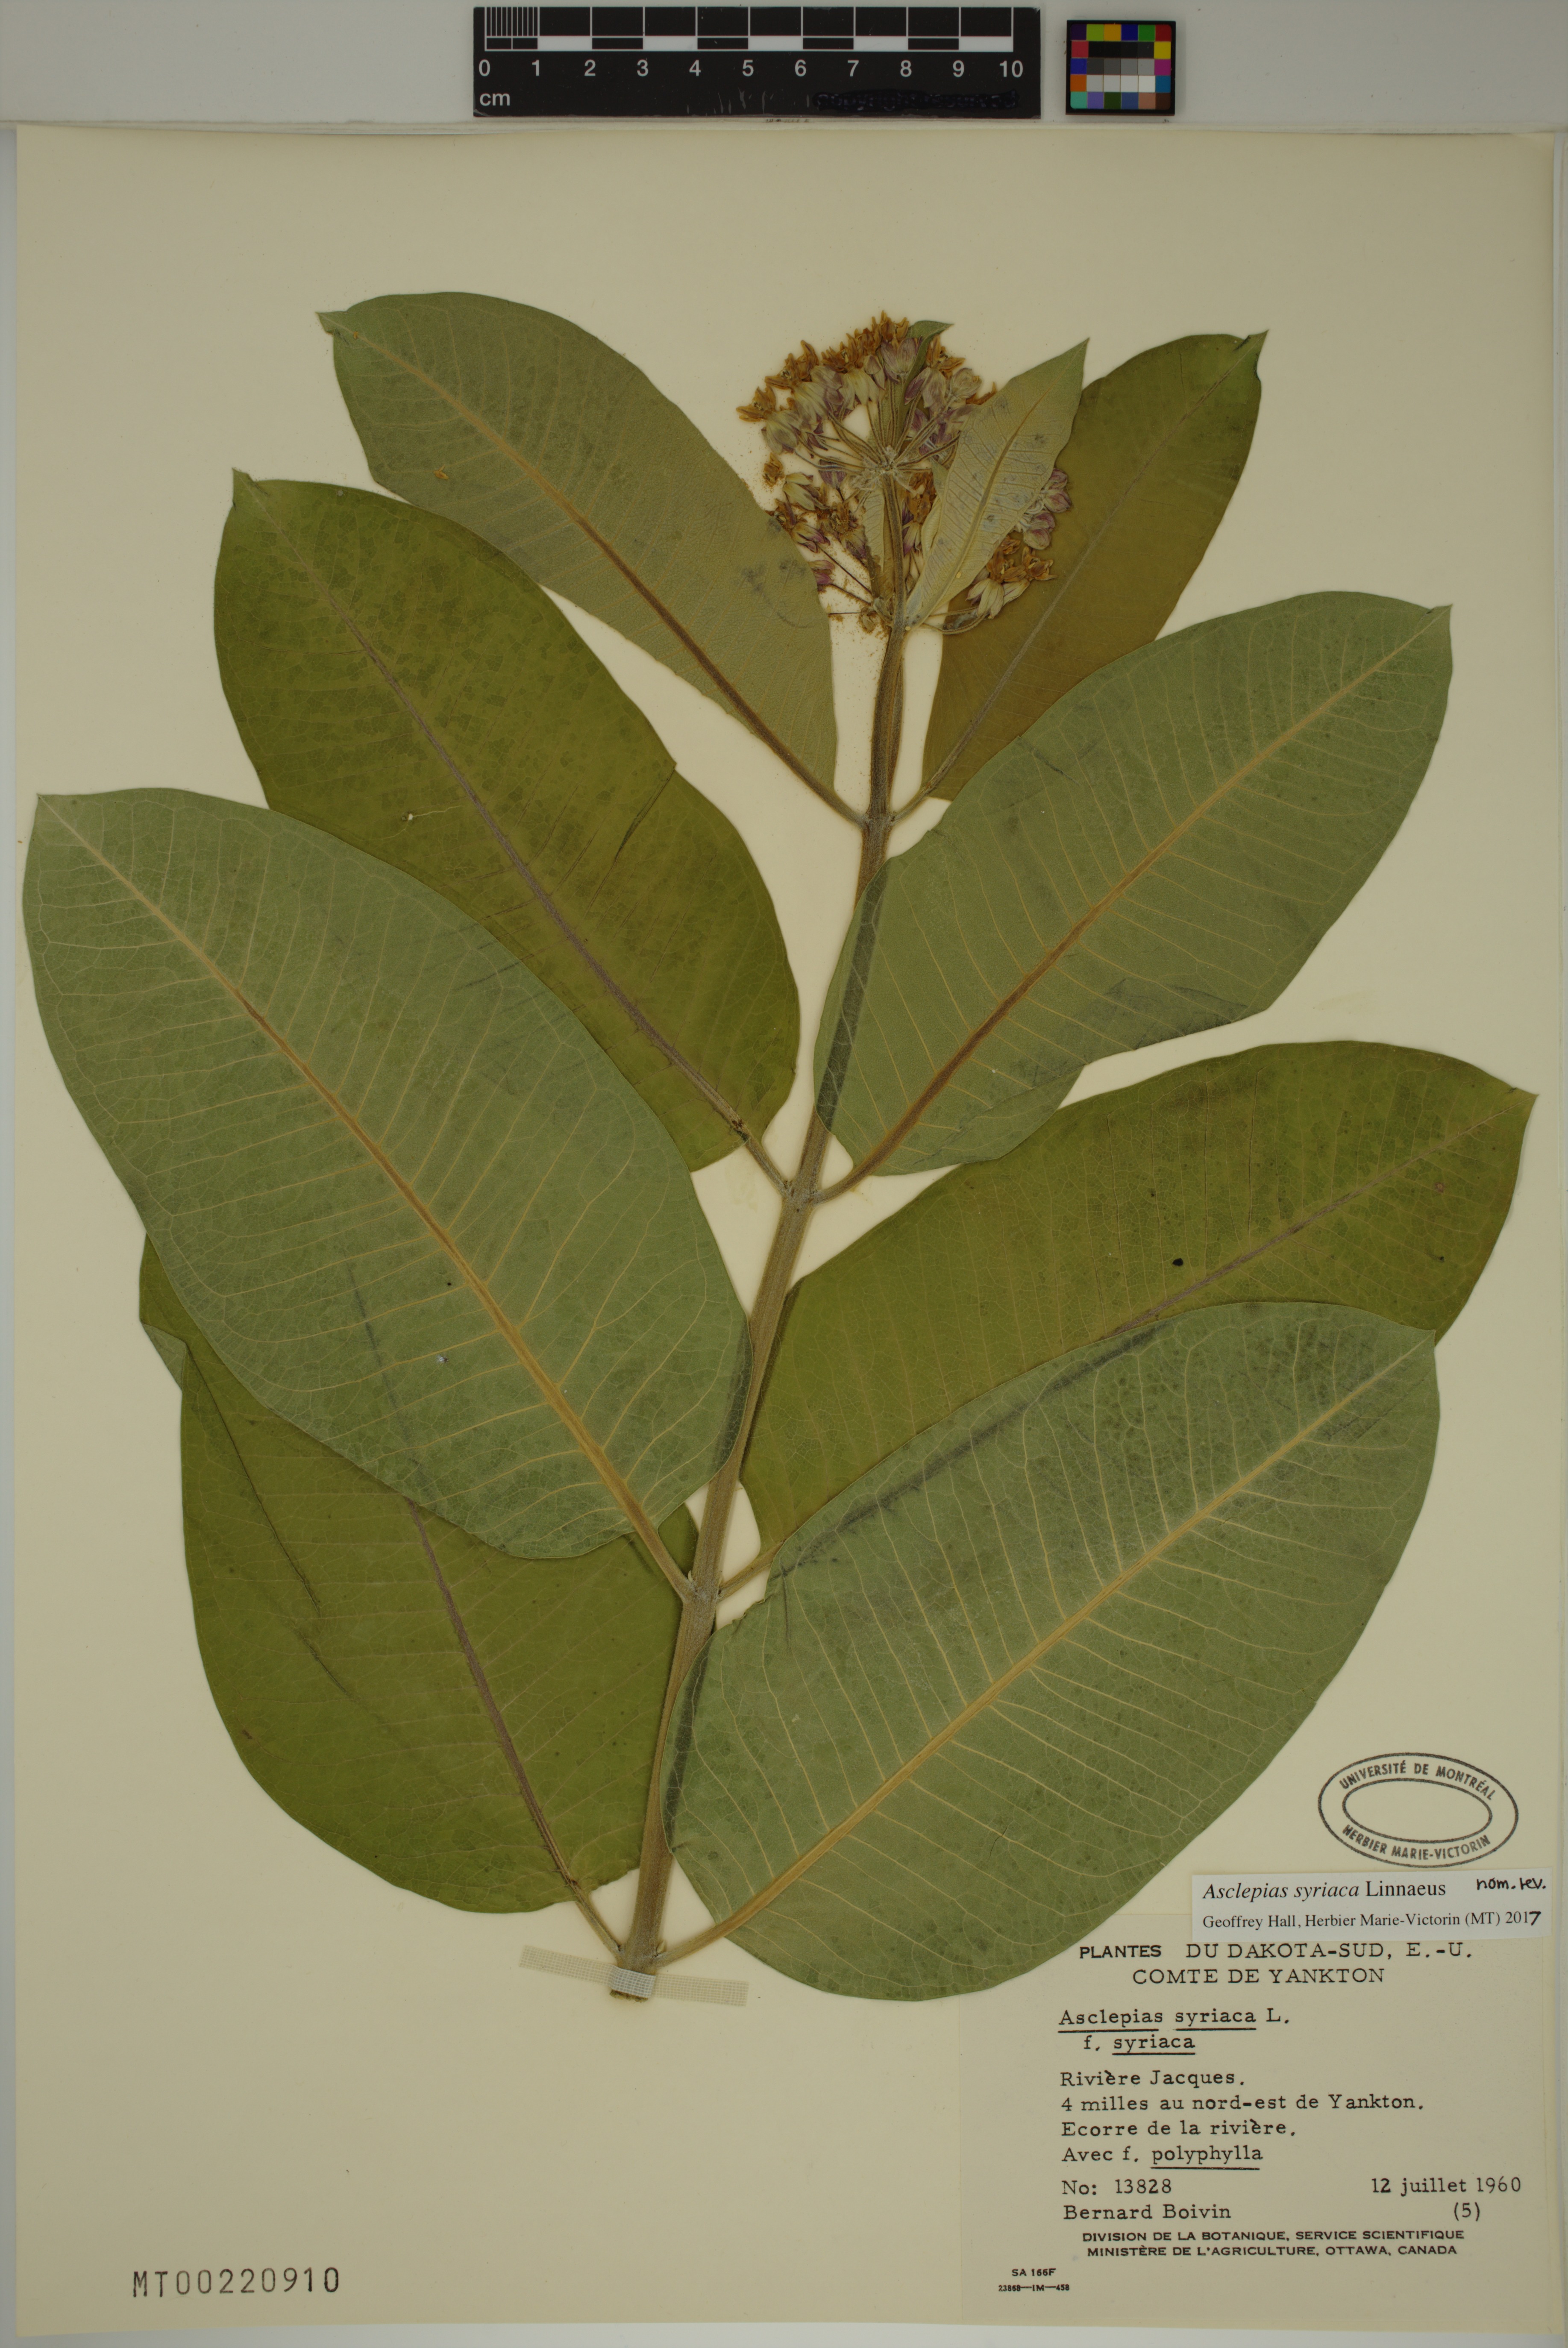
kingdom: Plantae
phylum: Tracheophyta
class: Magnoliopsida
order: Gentianales
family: Apocynaceae
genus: Asclepias
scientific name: Asclepias syriaca
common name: Common milkweed
